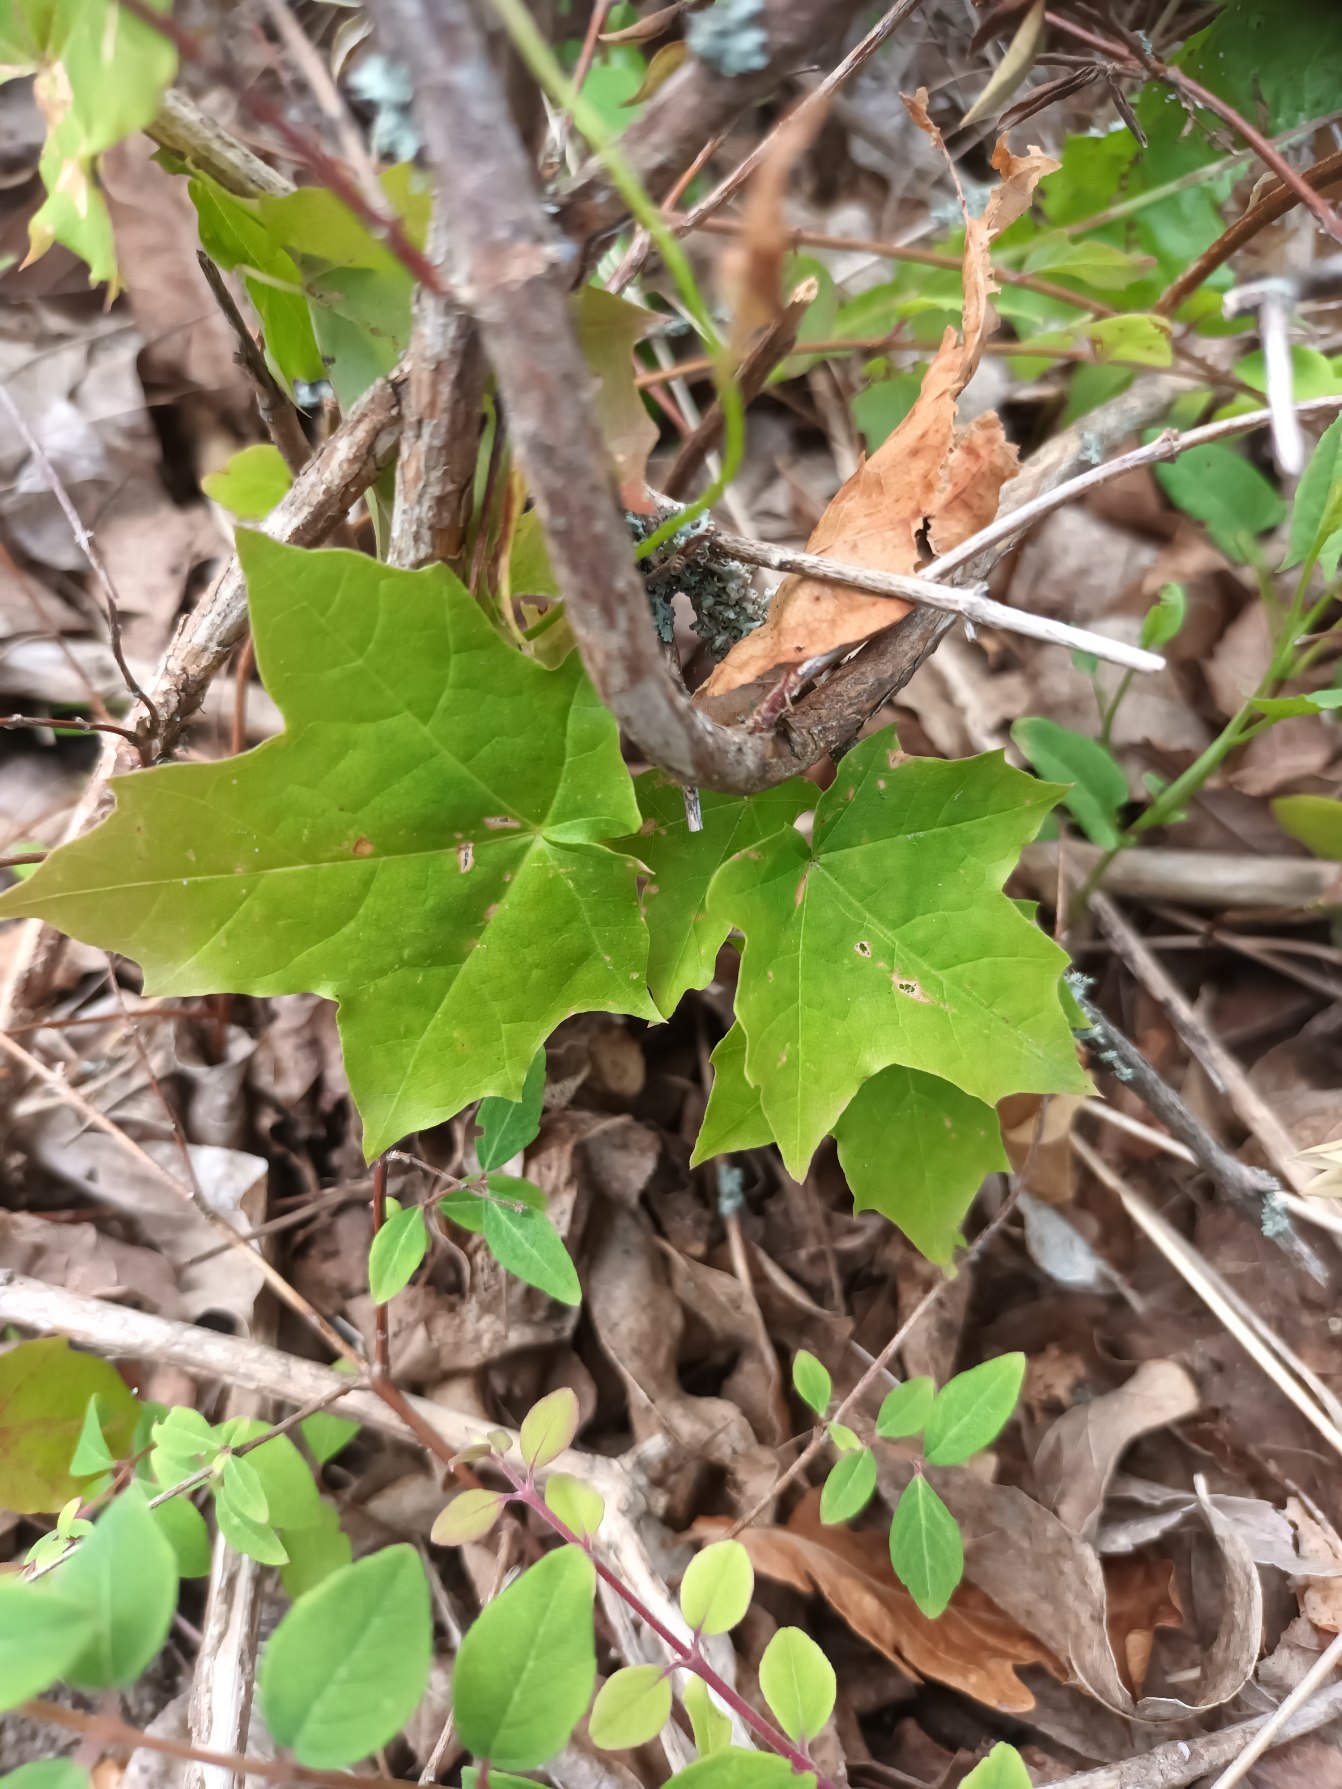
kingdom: Plantae
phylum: Tracheophyta
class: Magnoliopsida
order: Sapindales
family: Sapindaceae
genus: Acer
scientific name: Acer platanoides
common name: Spids-løn
